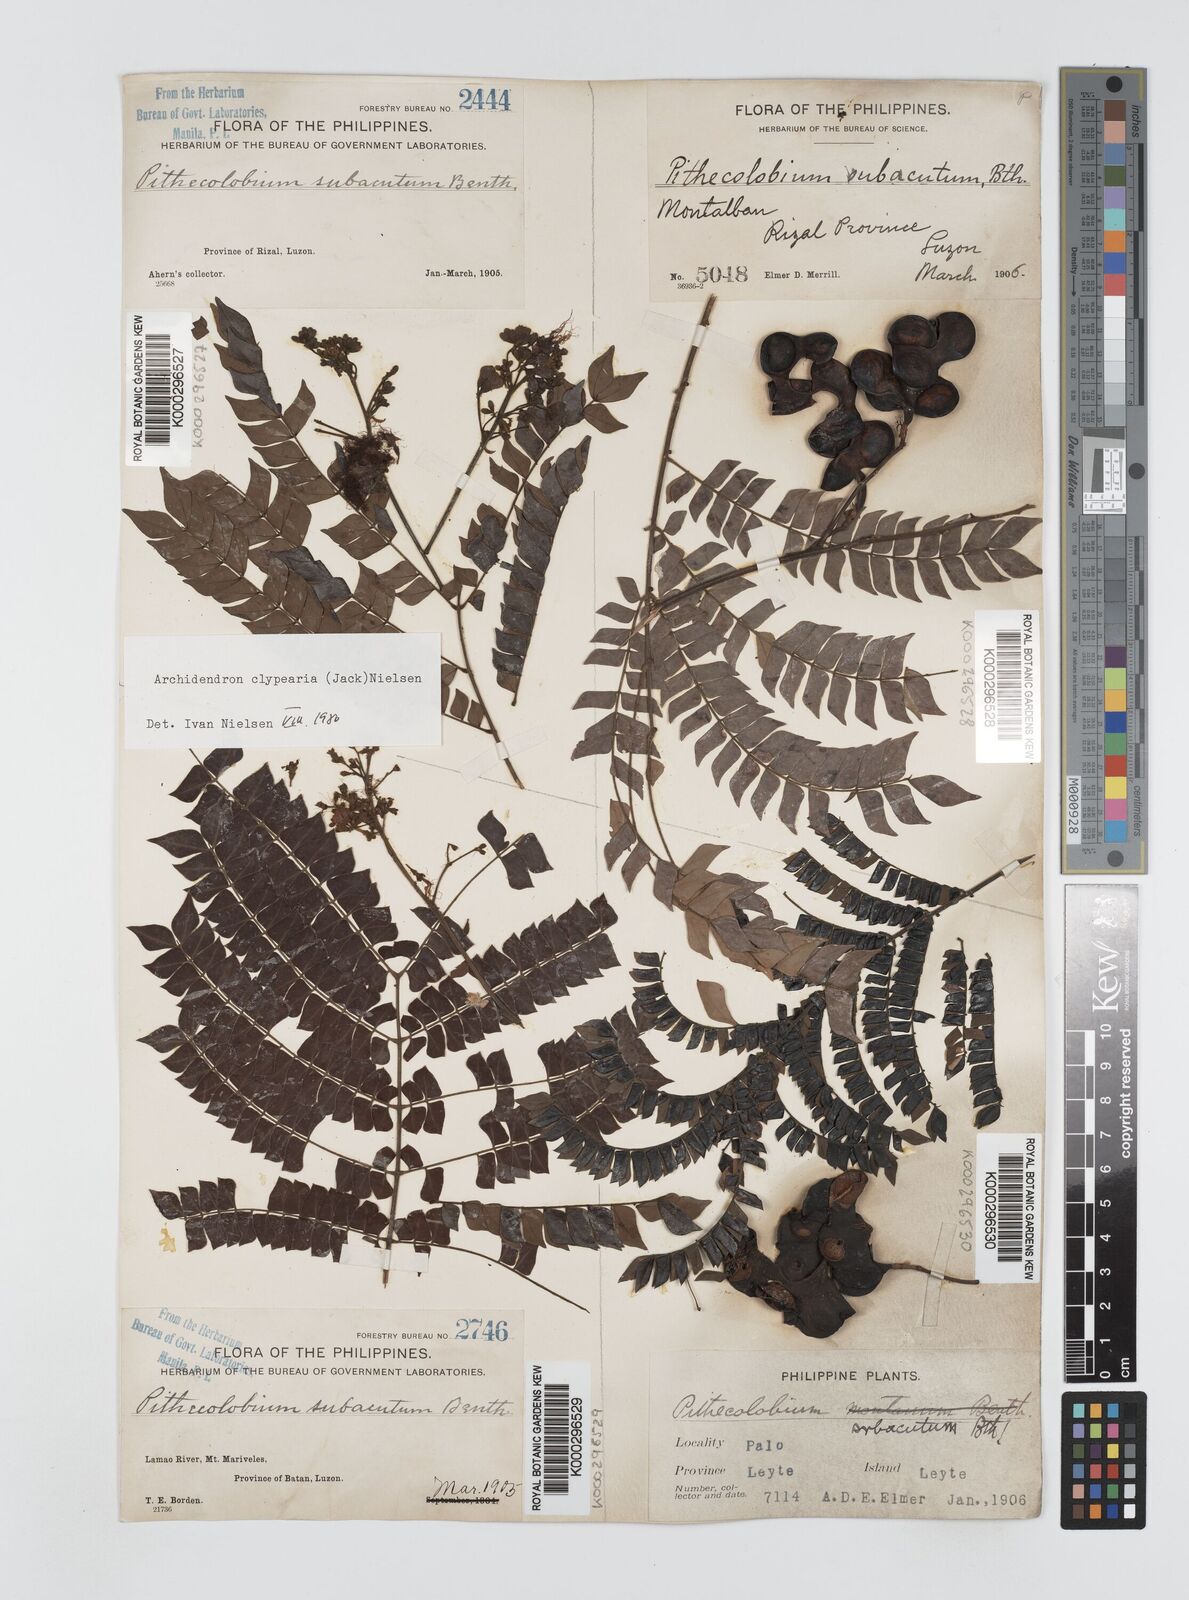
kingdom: Plantae
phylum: Tracheophyta
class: Magnoliopsida
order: Fabales
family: Fabaceae
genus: Archidendron
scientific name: Archidendron clypearia
